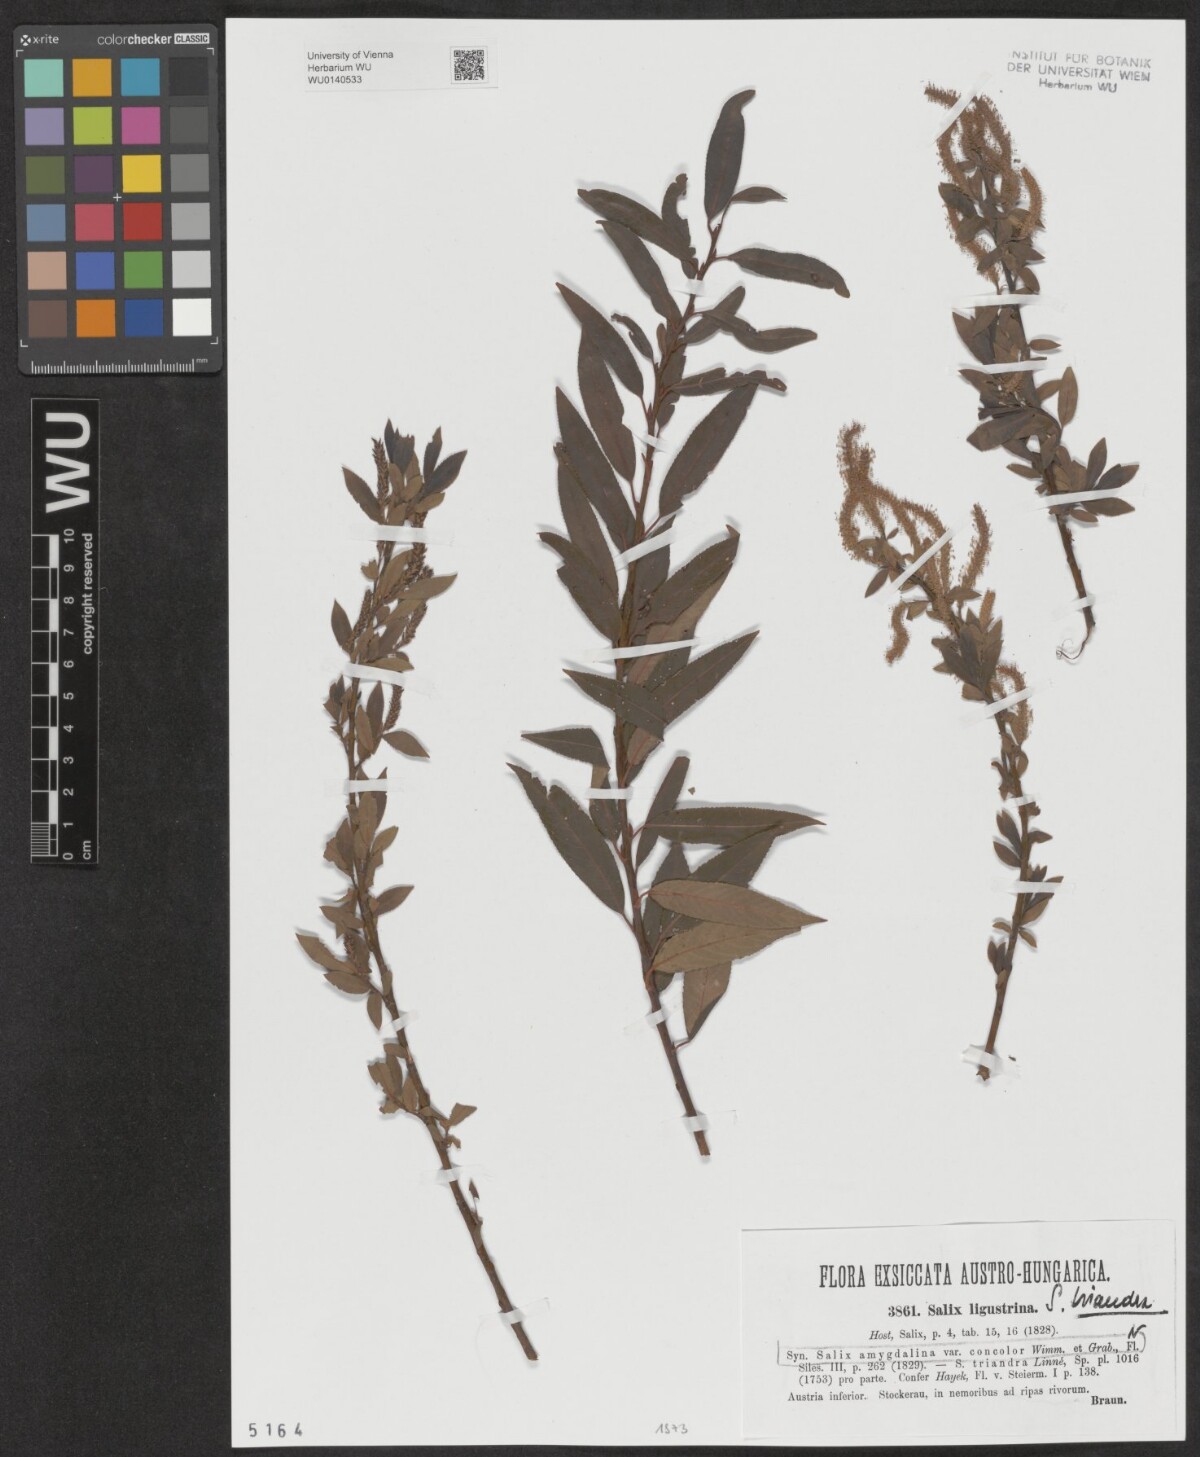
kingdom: Plantae
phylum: Tracheophyta
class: Magnoliopsida
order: Malpighiales
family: Salicaceae
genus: Salix
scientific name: Salix triandra
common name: Almond willow
